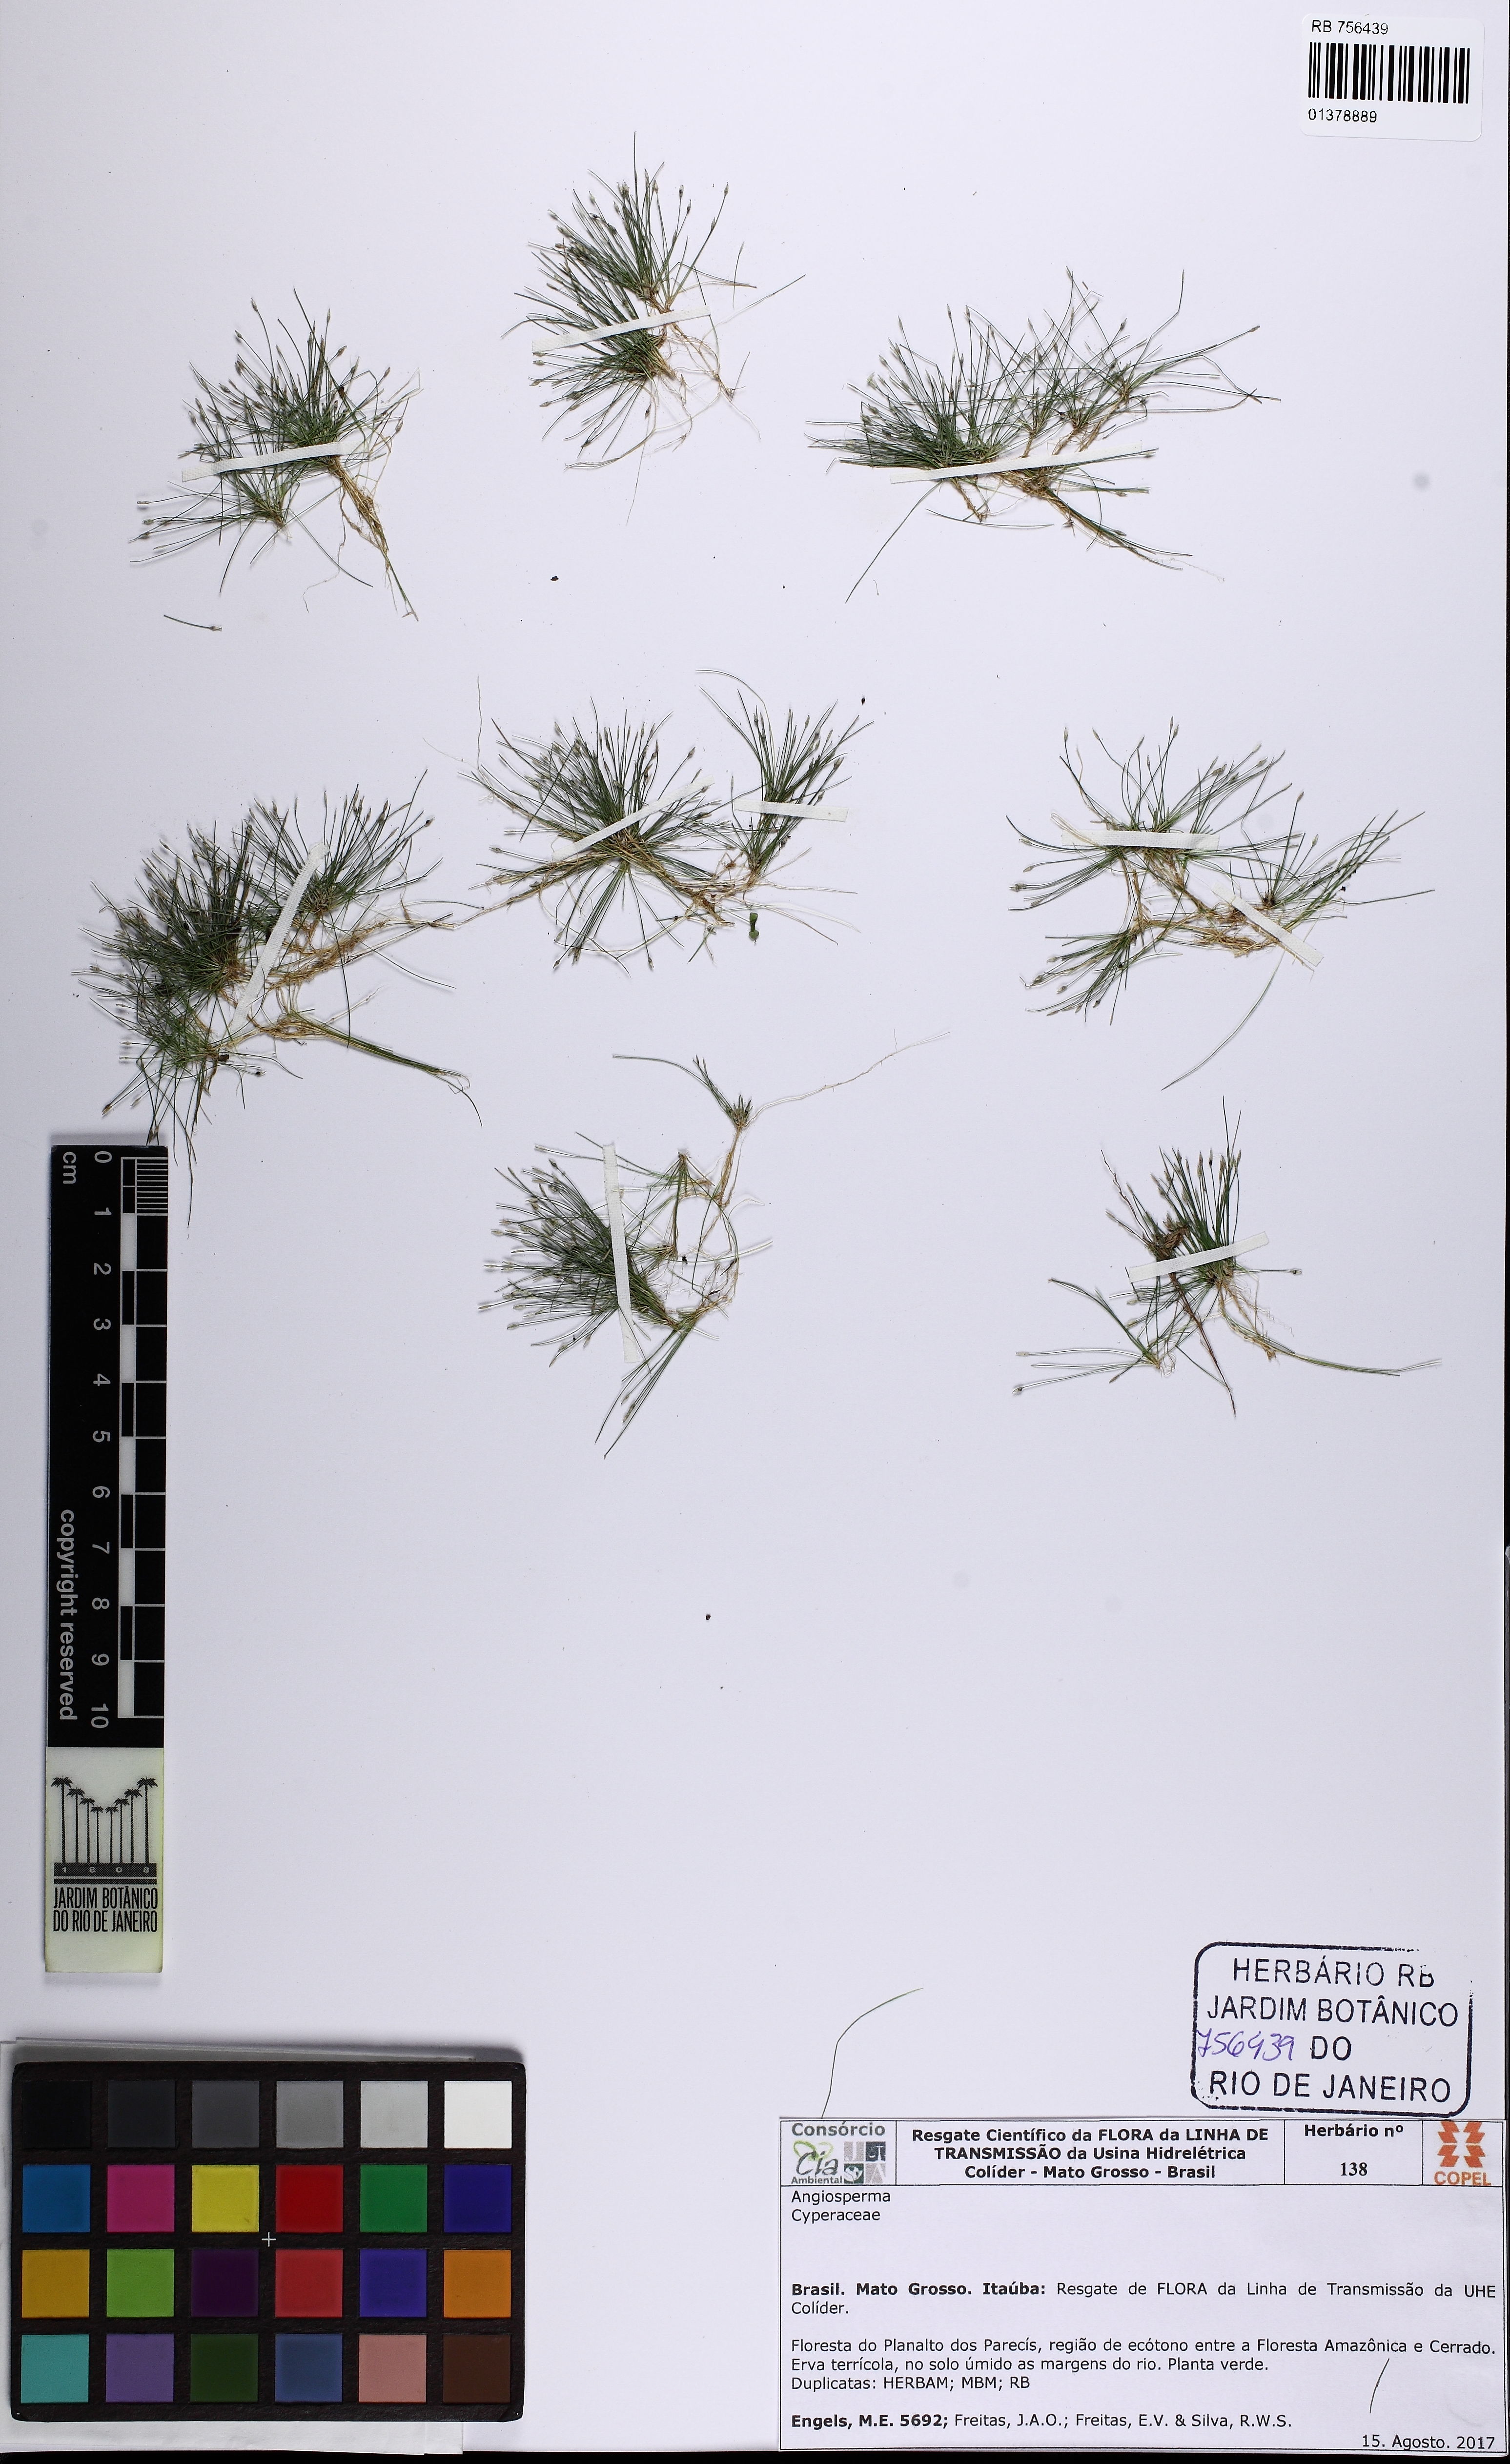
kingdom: Plantae
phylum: Tracheophyta
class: Liliopsida
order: Poales
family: Cyperaceae
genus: Eleocharis
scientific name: Eleocharis capillacea
